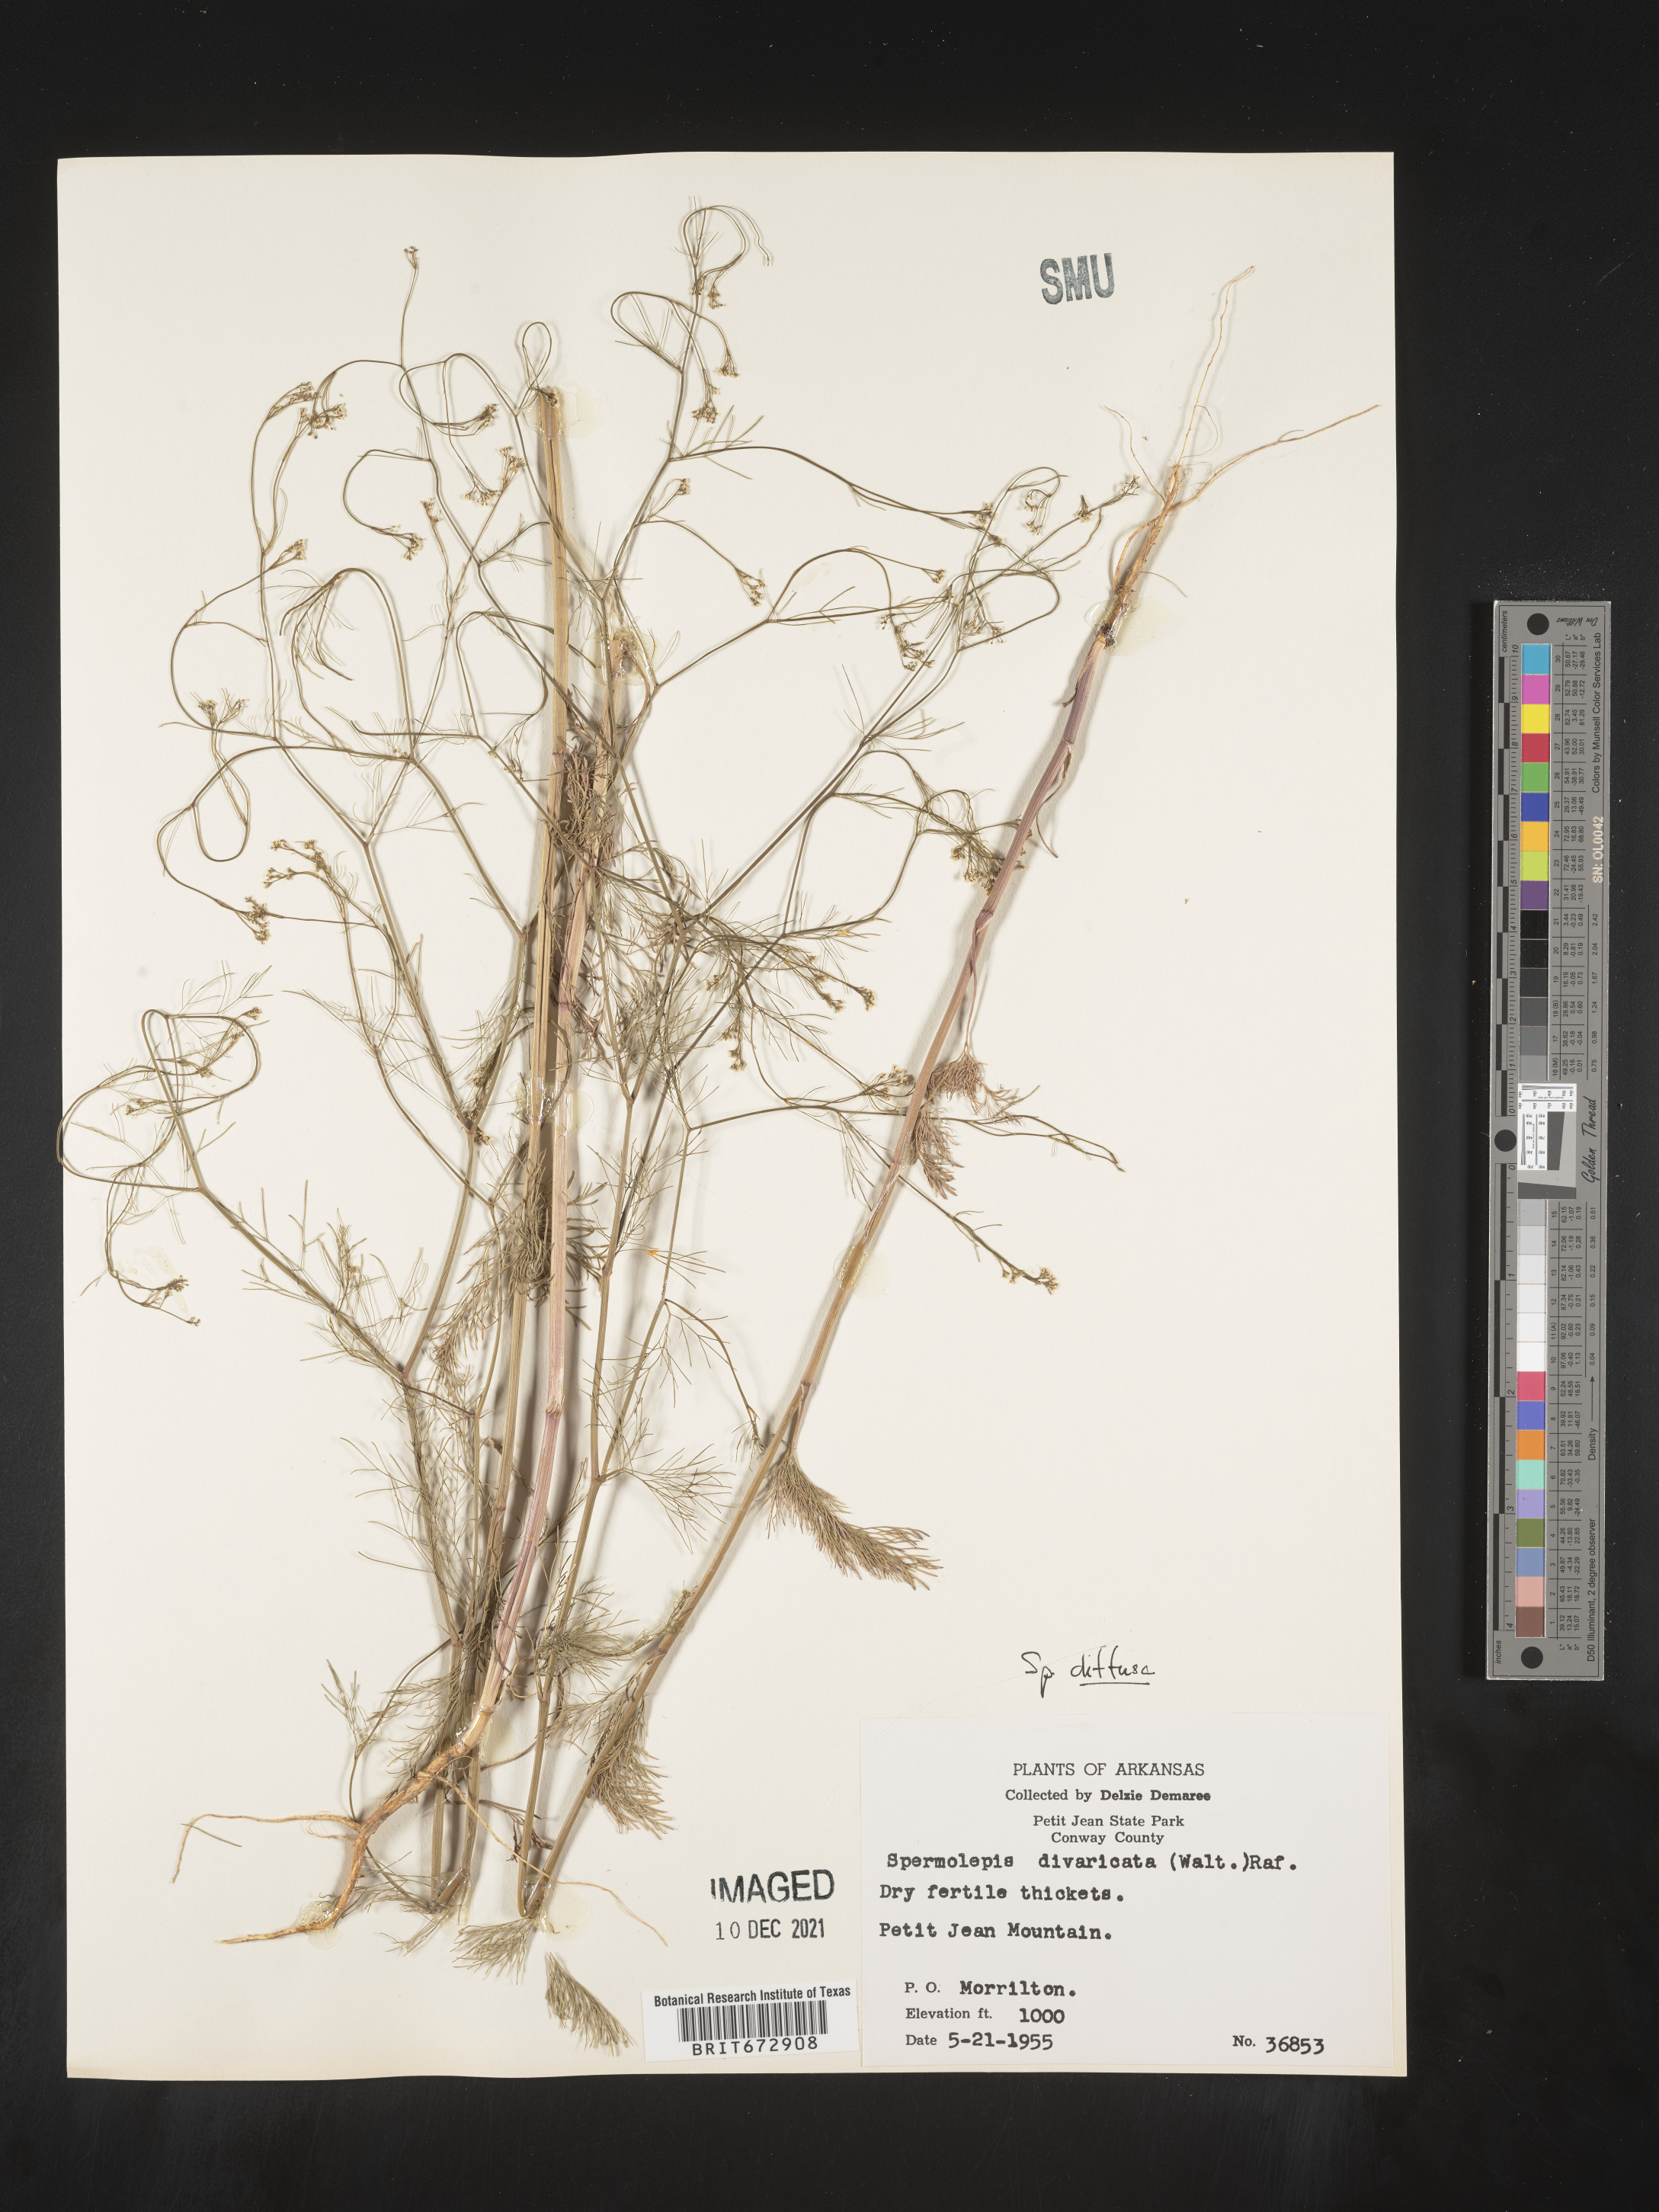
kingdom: Plantae
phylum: Tracheophyta
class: Magnoliopsida
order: Apiales
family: Apiaceae
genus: Spermolepis
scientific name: Spermolepis diffusa
